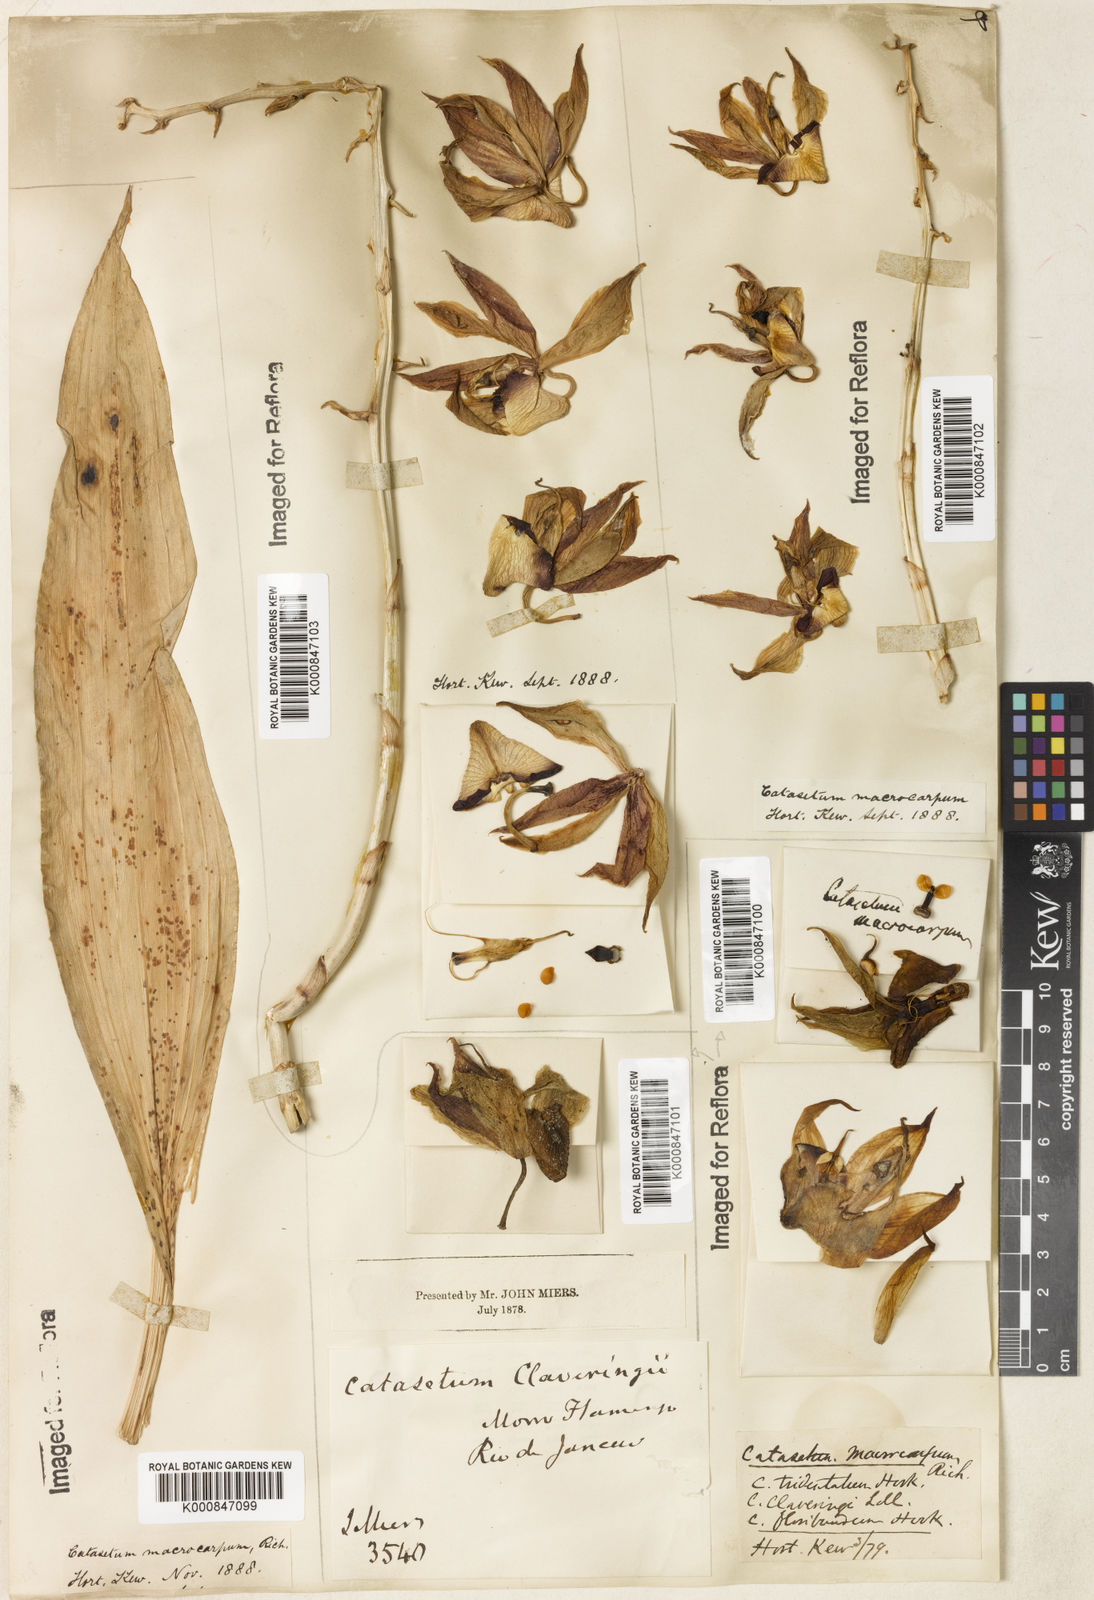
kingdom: Plantae
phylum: Tracheophyta
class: Liliopsida
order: Asparagales
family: Orchidaceae
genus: Catasetum
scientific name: Catasetum macrocarpum
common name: Jumping orchid
